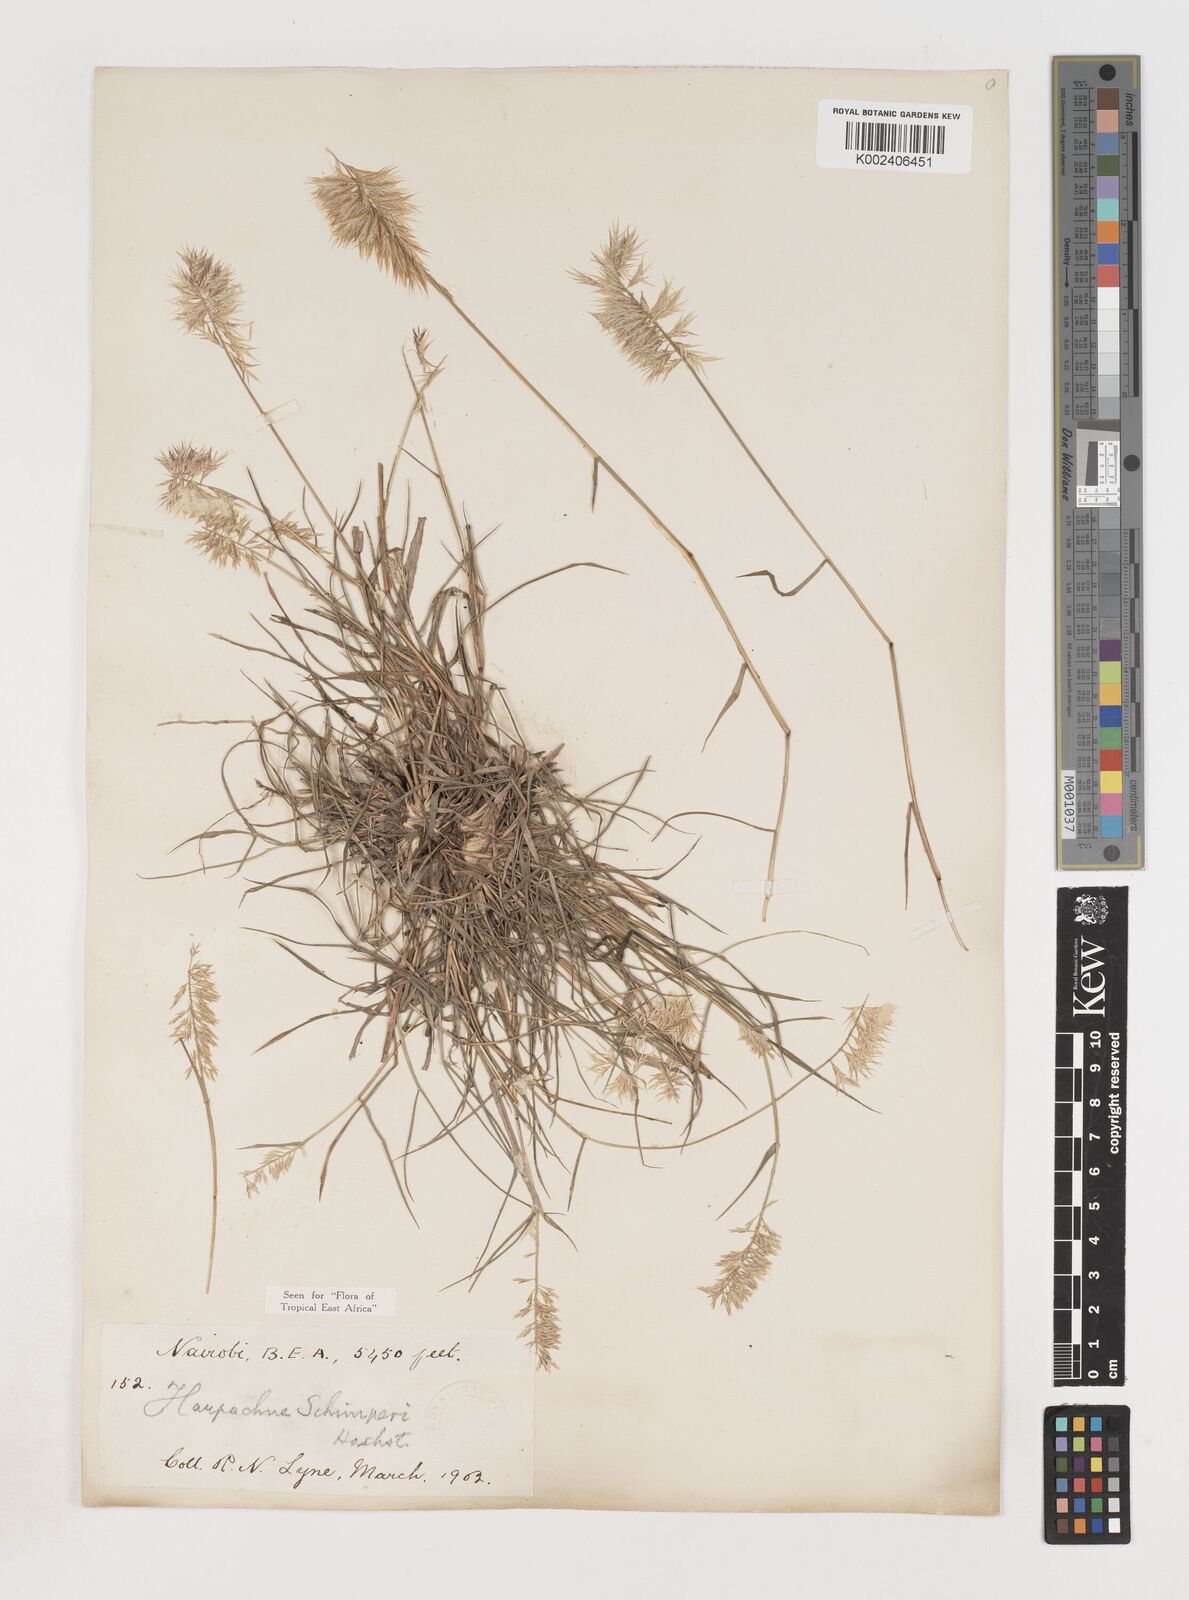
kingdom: Plantae
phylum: Tracheophyta
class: Liliopsida
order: Poales
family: Poaceae
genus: Harpachne
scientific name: Harpachne schimperi
